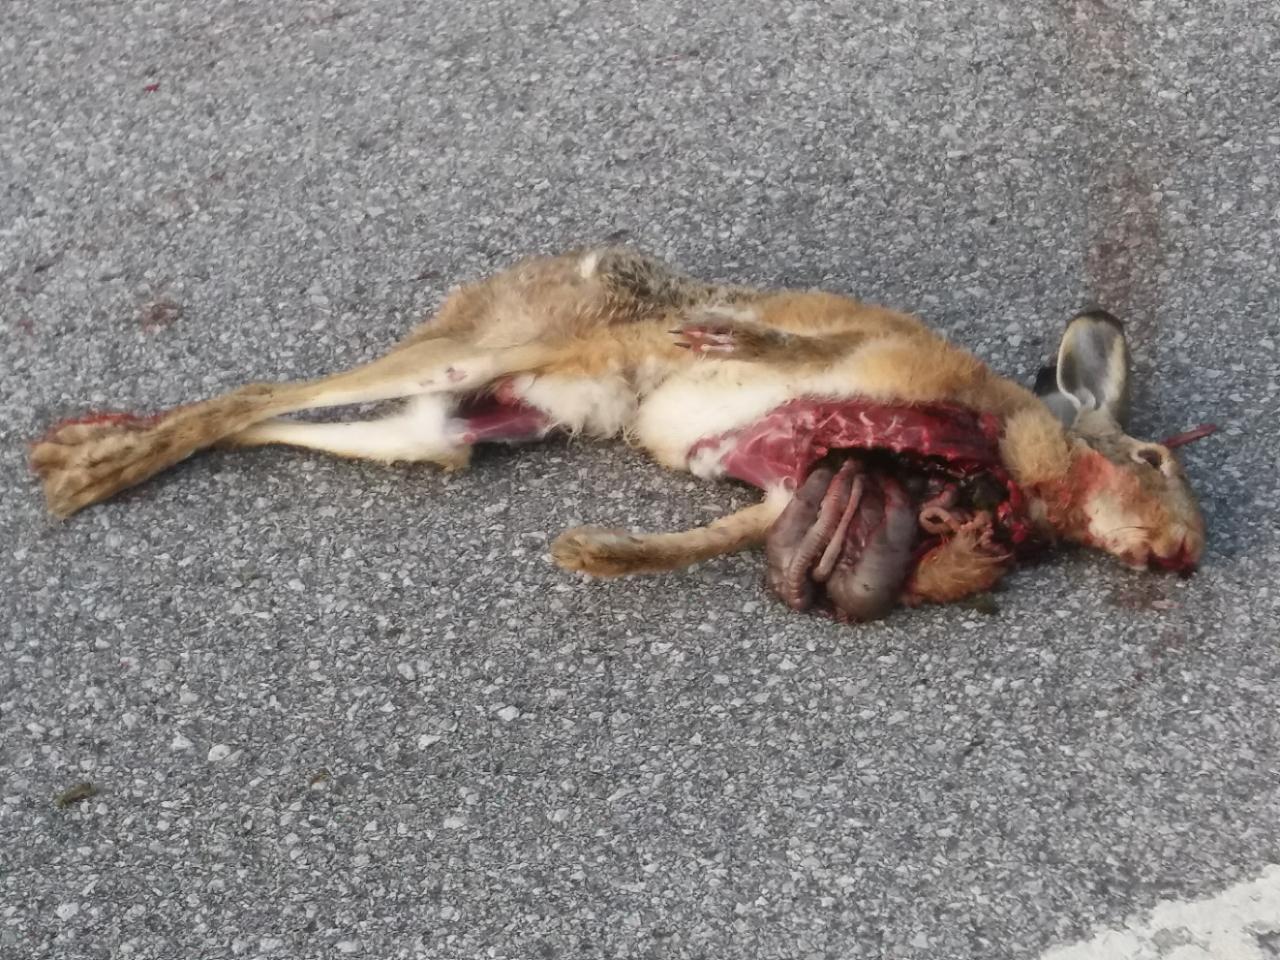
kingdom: Animalia
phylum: Chordata
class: Mammalia
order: Lagomorpha
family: Leporidae
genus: Lepus
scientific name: Lepus europaeus
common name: European hare
